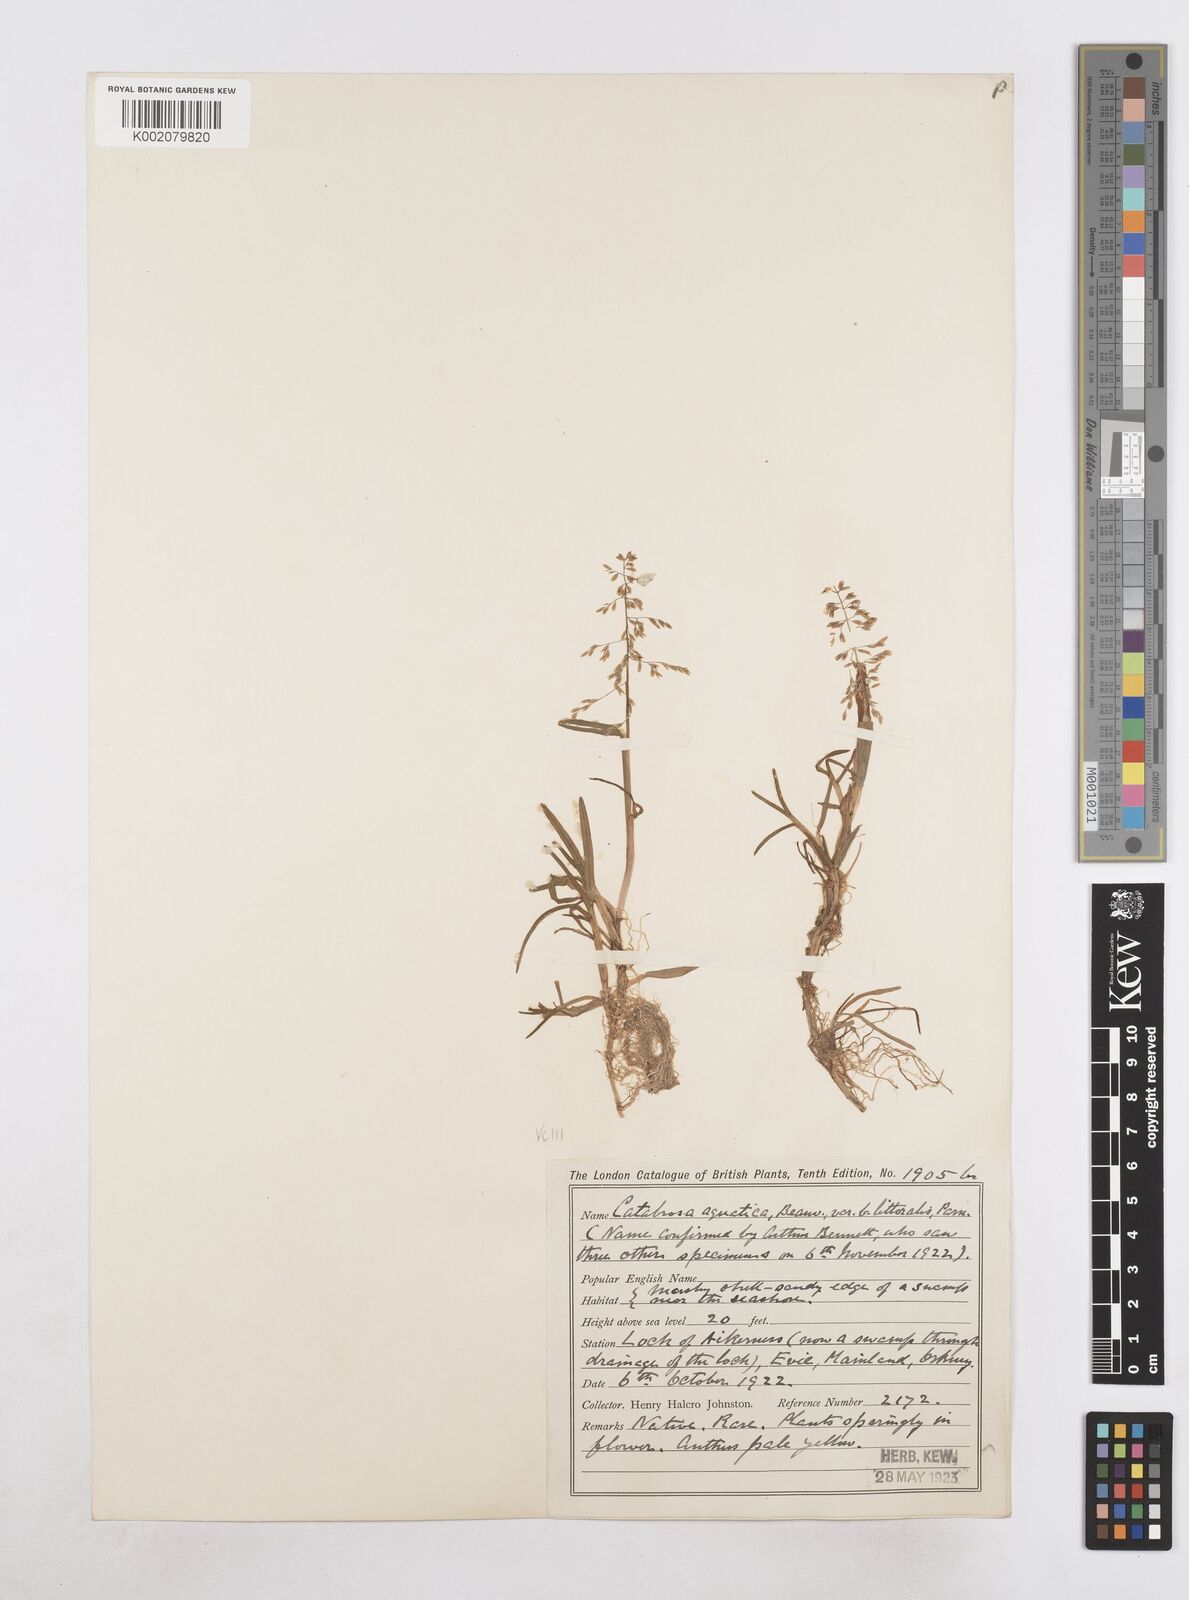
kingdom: Plantae
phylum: Tracheophyta
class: Liliopsida
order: Poales
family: Poaceae
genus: Catabrosa
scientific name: Catabrosa aquatica
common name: Whorl-grass
